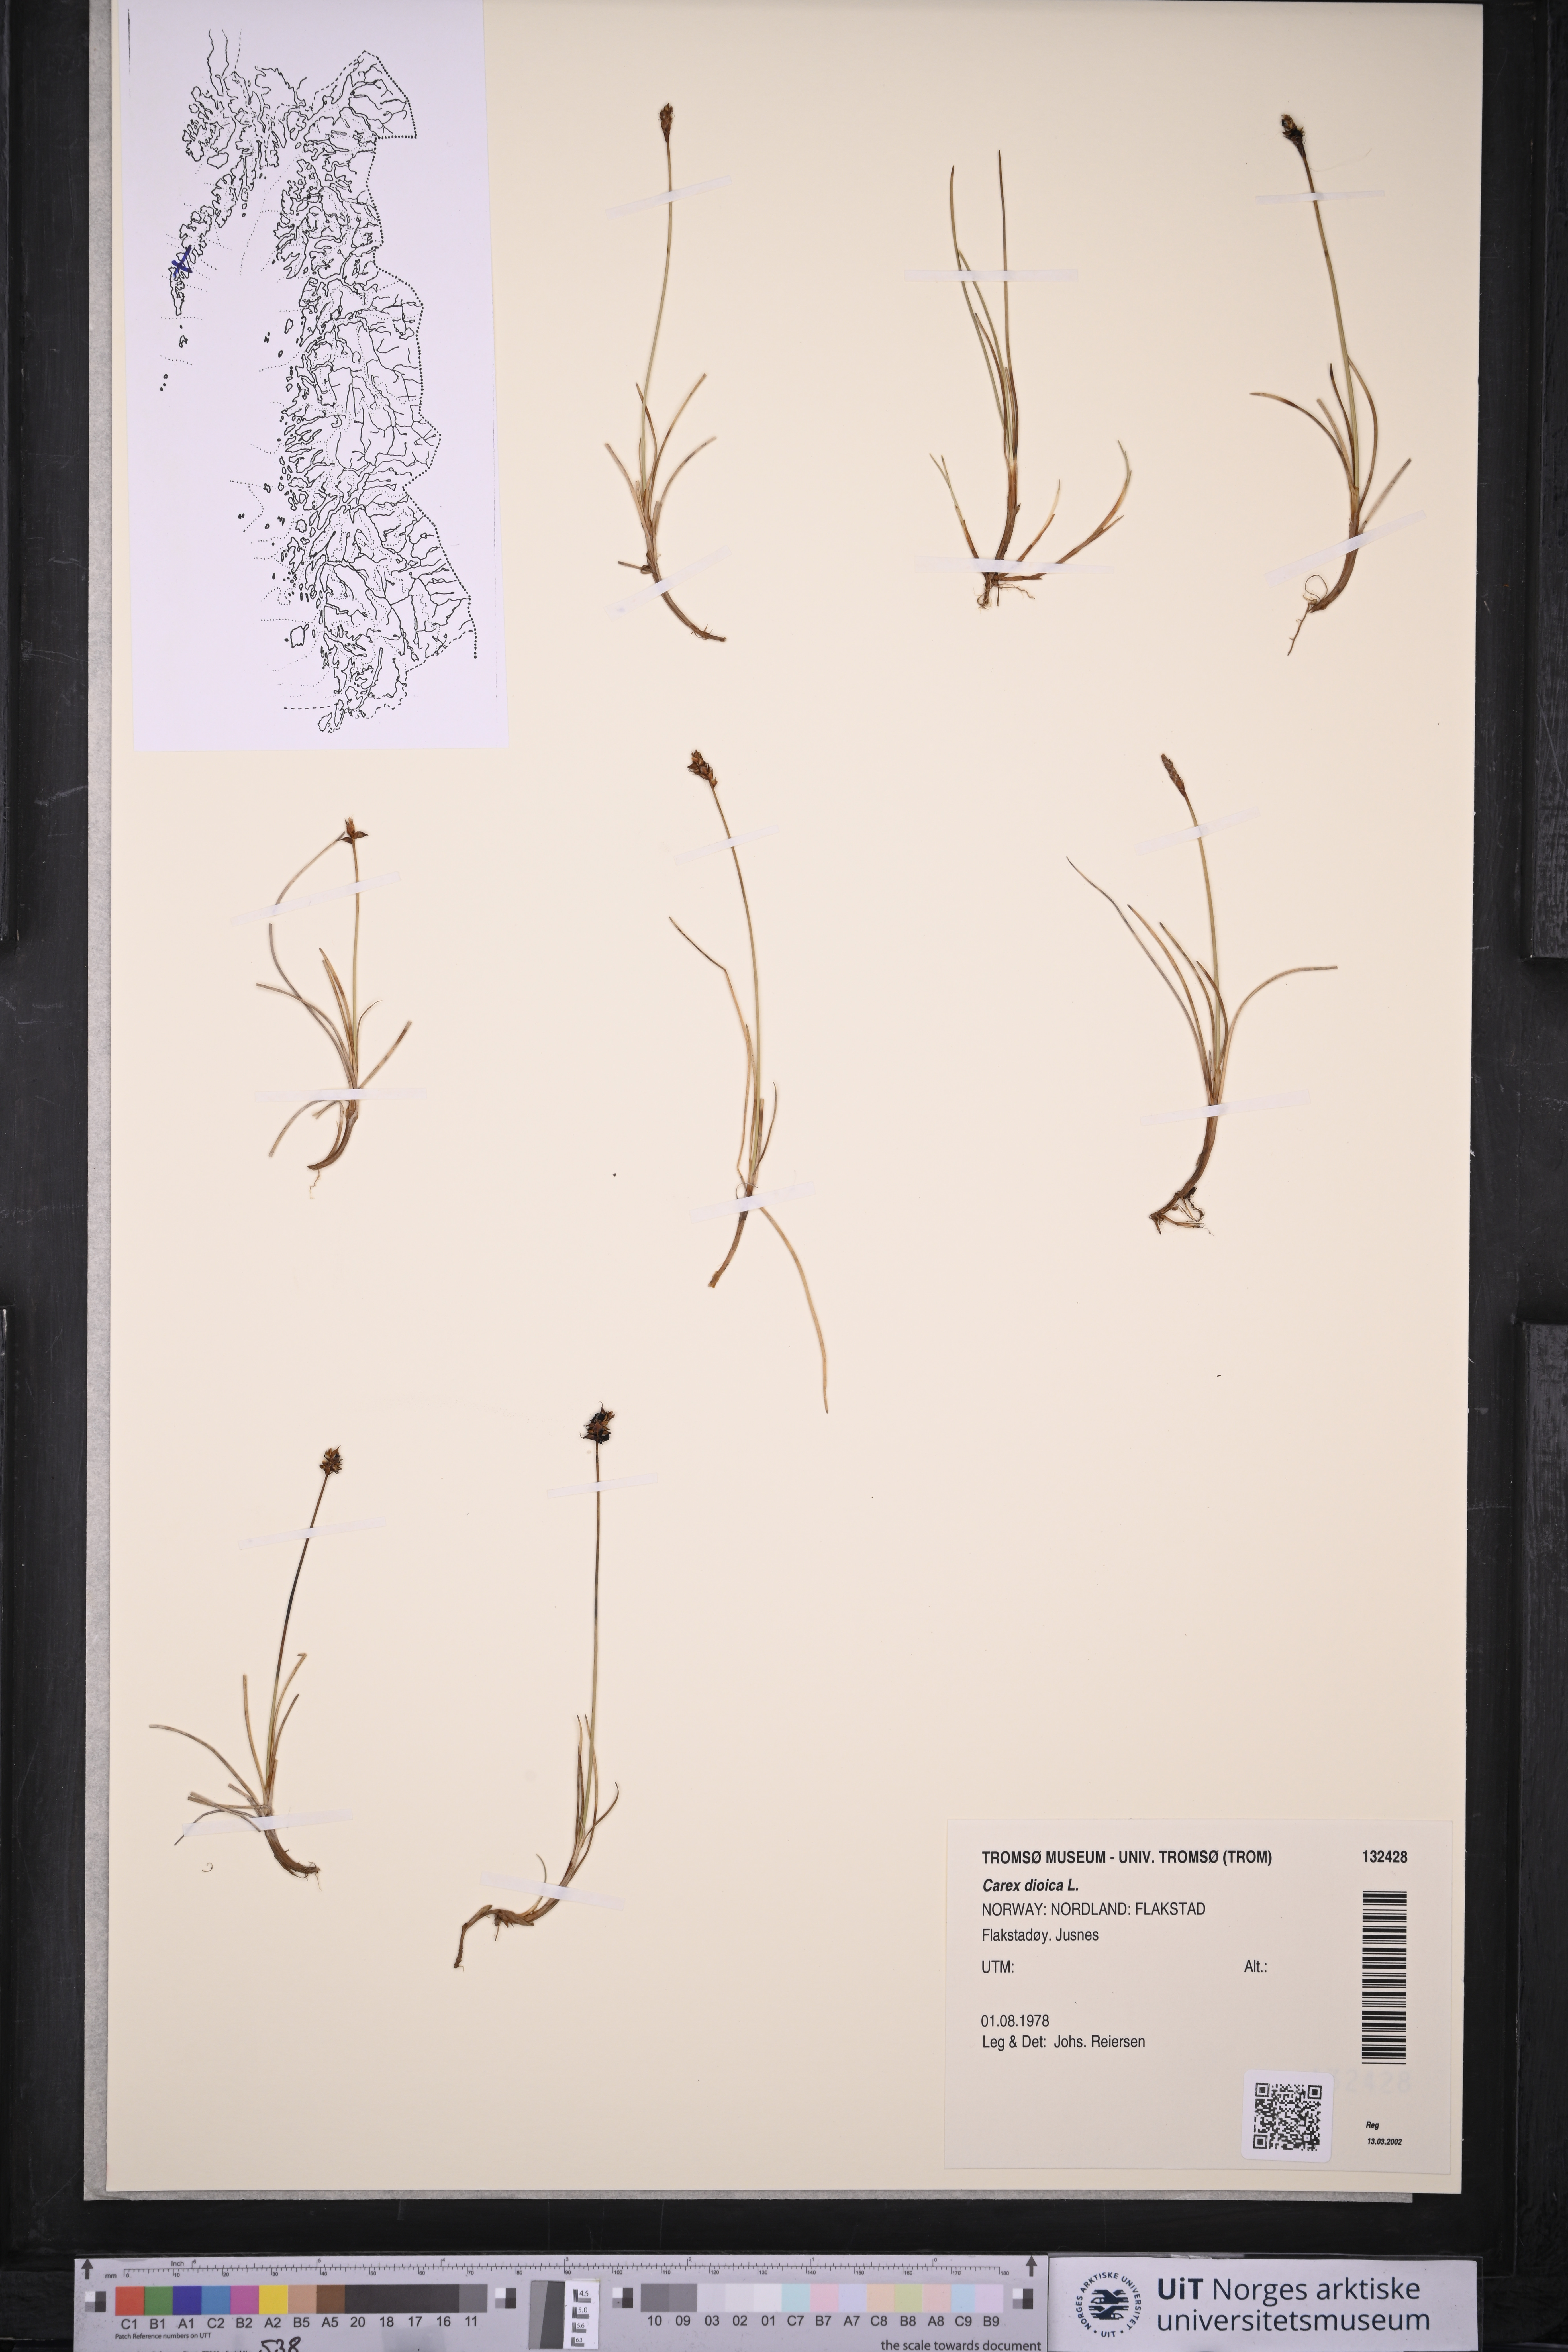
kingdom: Plantae
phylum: Tracheophyta
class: Liliopsida
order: Poales
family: Cyperaceae
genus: Carex
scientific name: Carex dioica
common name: Dioecious sedge
